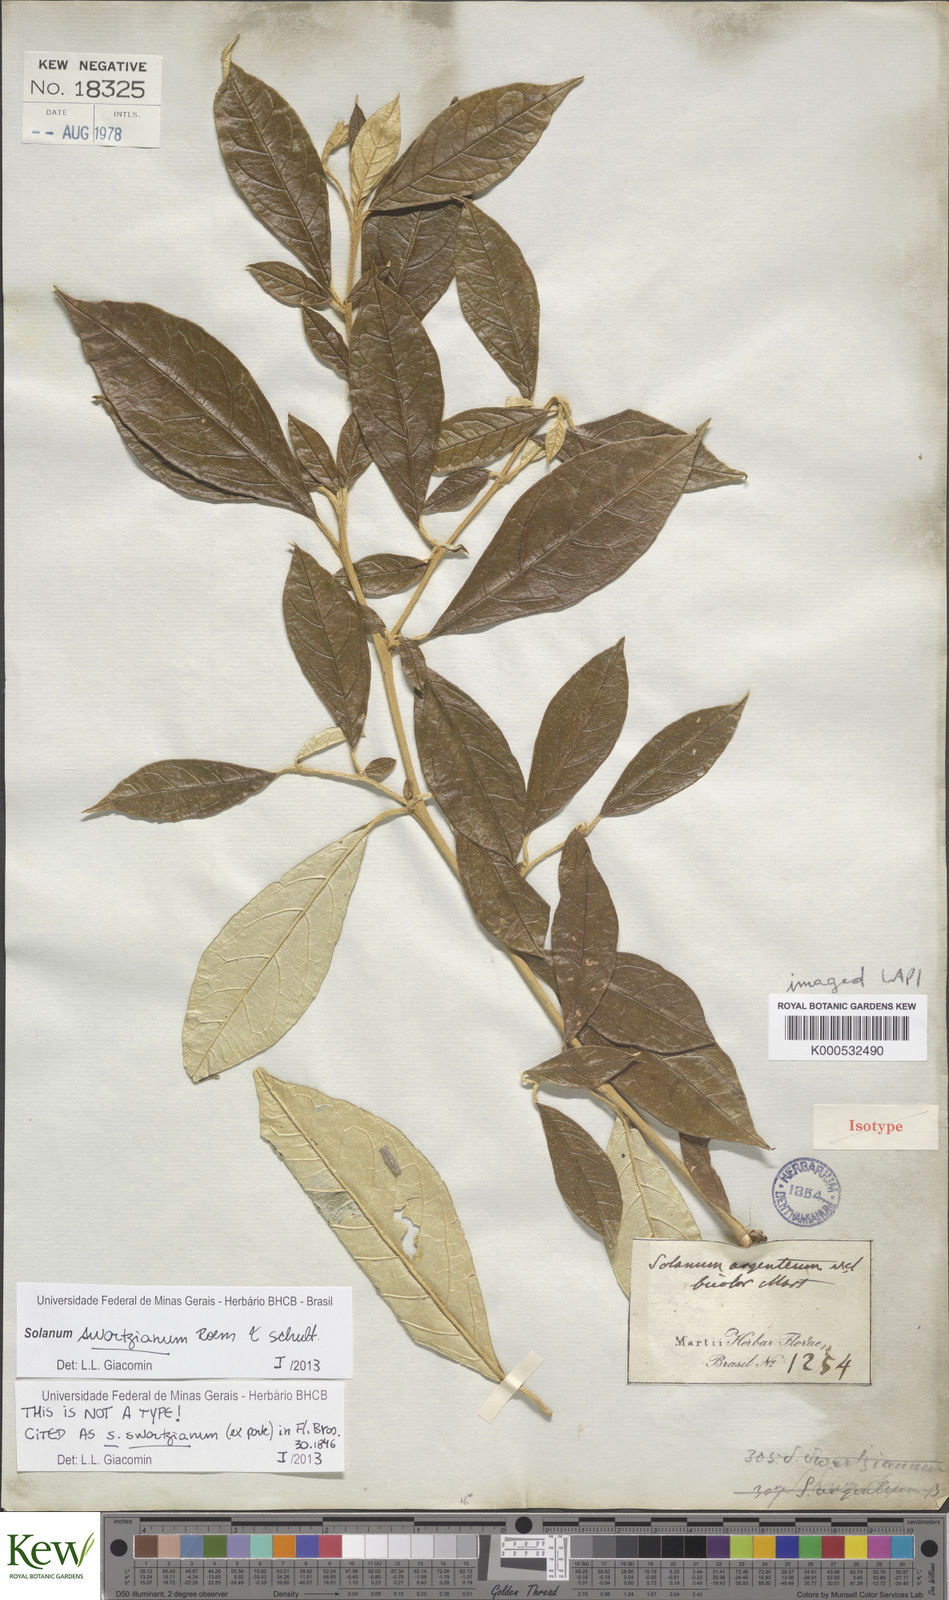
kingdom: Plantae
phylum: Tracheophyta
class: Magnoliopsida
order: Solanales
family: Solanaceae
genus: Solanum
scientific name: Solanum schulzianum
